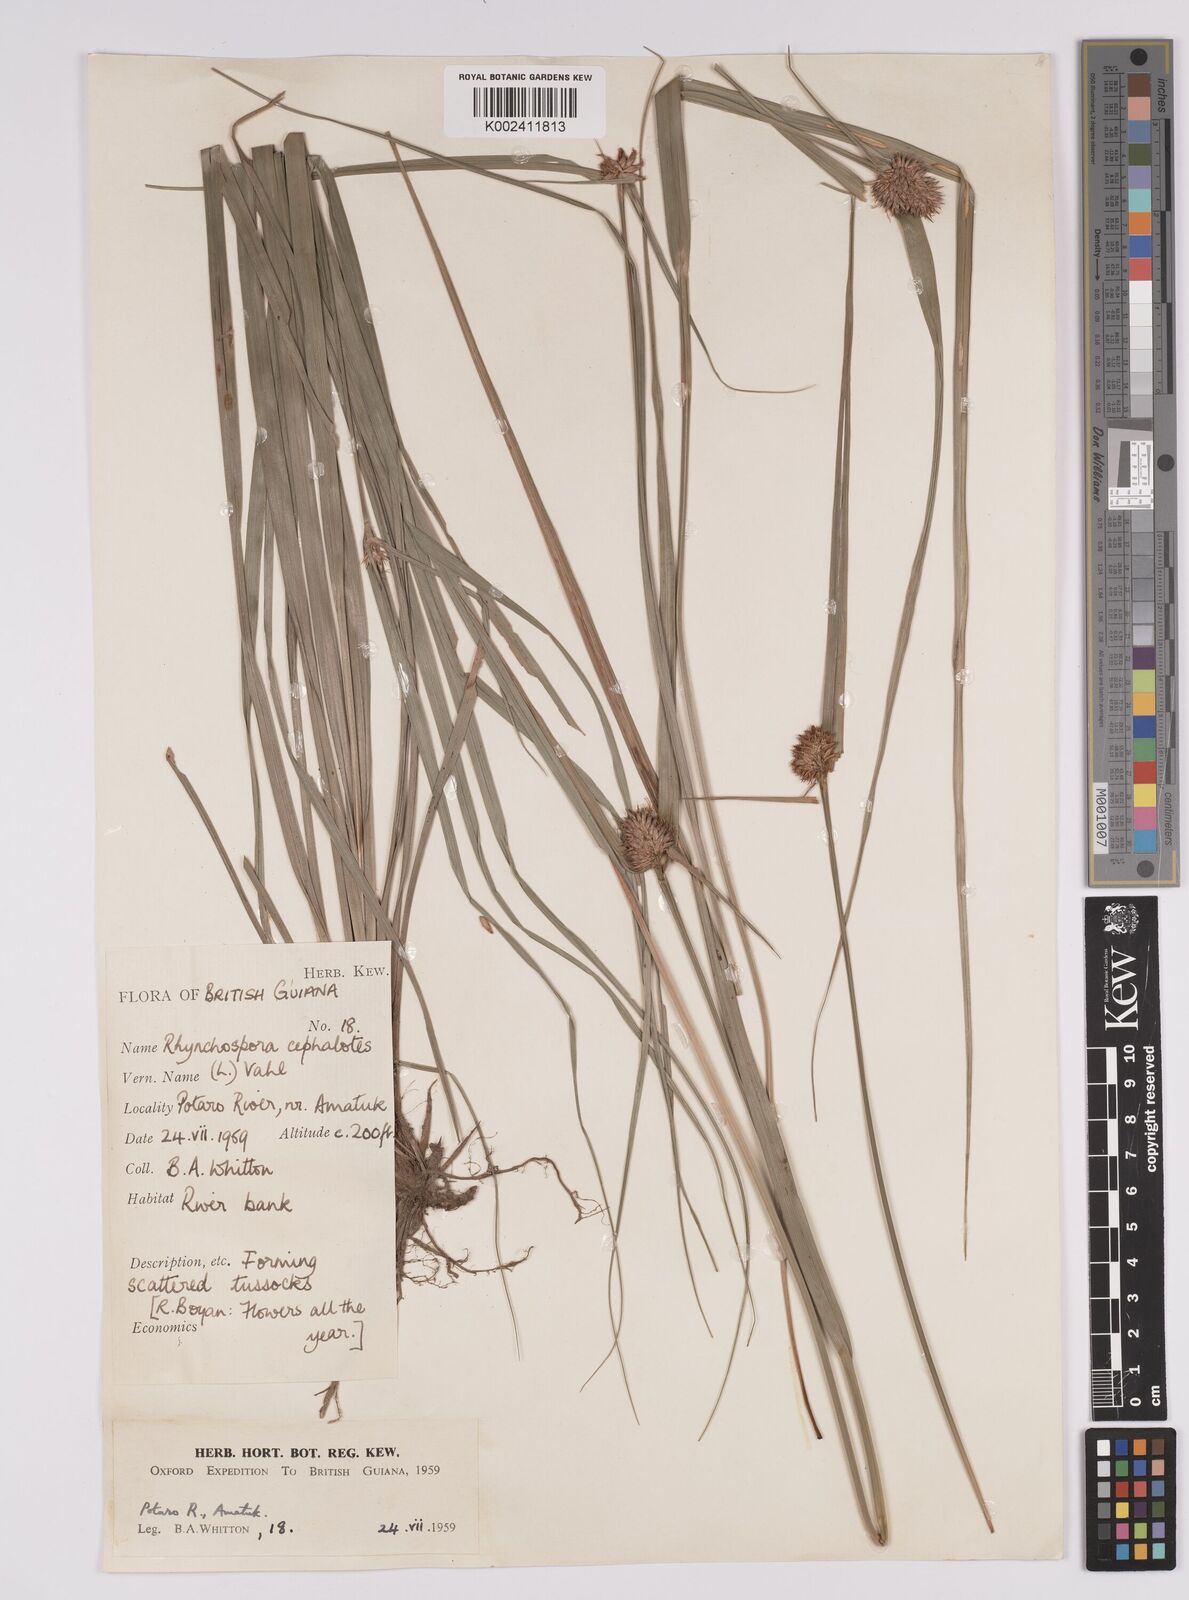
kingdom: Plantae
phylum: Tracheophyta
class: Liliopsida
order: Poales
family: Cyperaceae
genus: Rhynchospora
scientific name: Rhynchospora cephalotes
